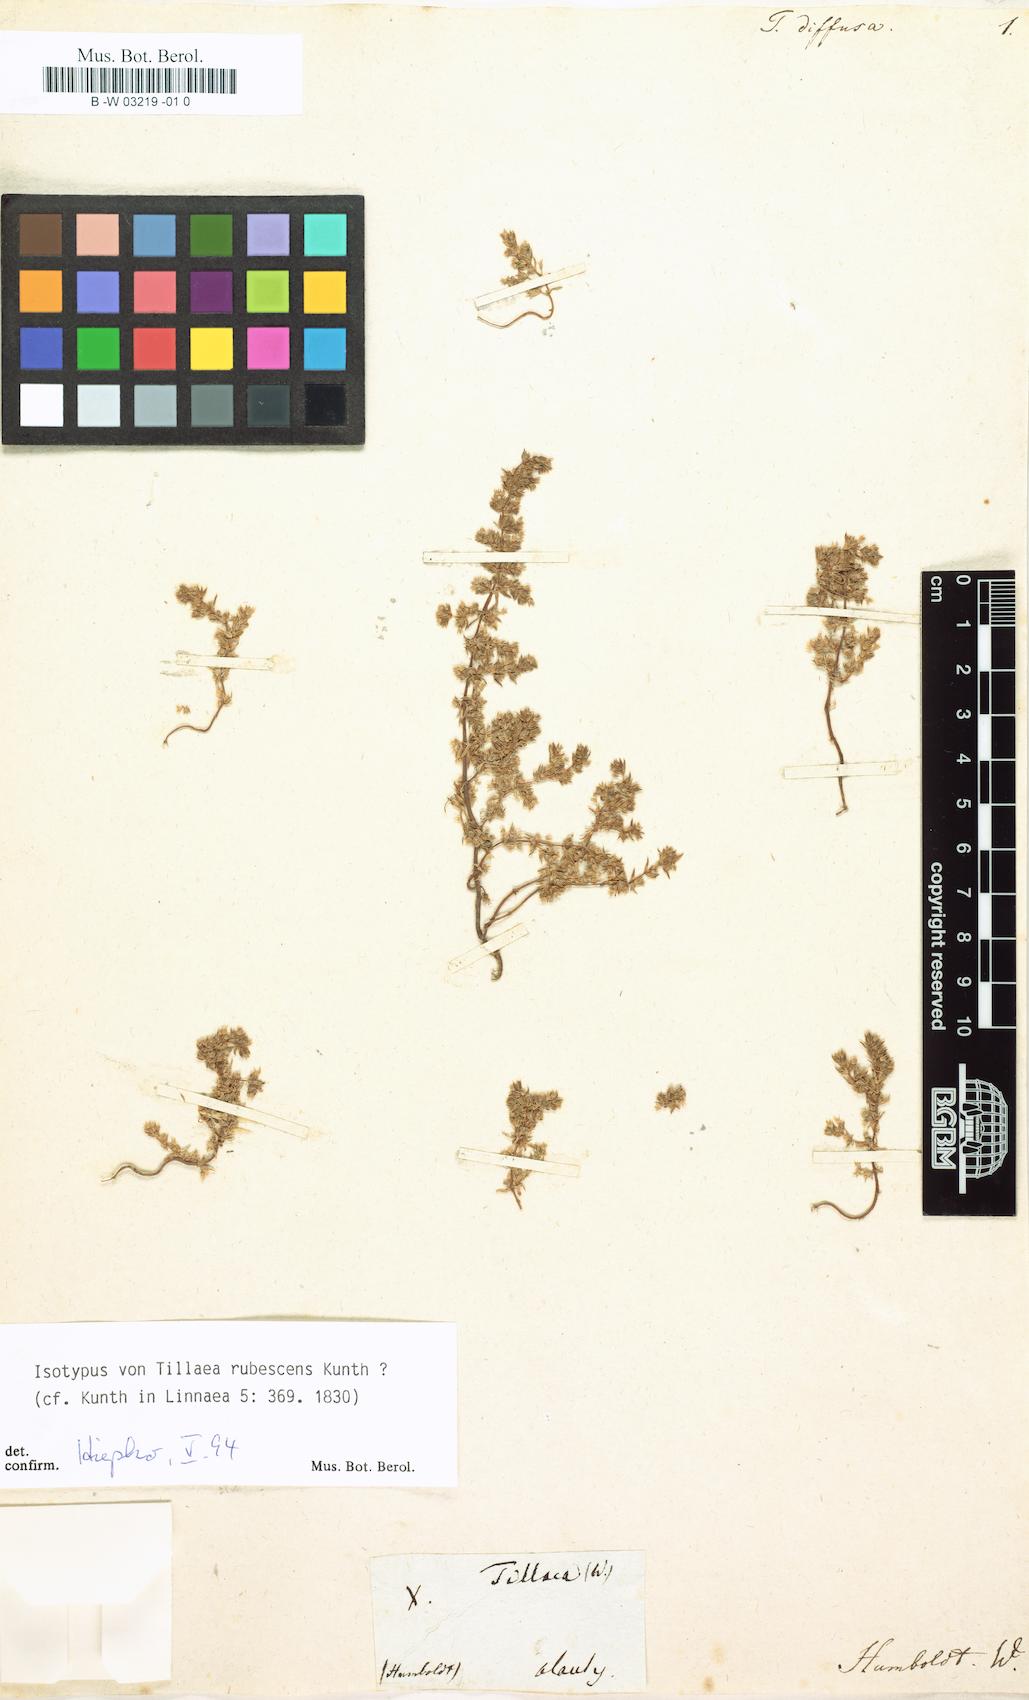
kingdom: Plantae
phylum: Tracheophyta
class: Magnoliopsida
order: Saxifragales
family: Crassulaceae
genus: Crassula
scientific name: Crassula connata
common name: Erect pygmyweed
